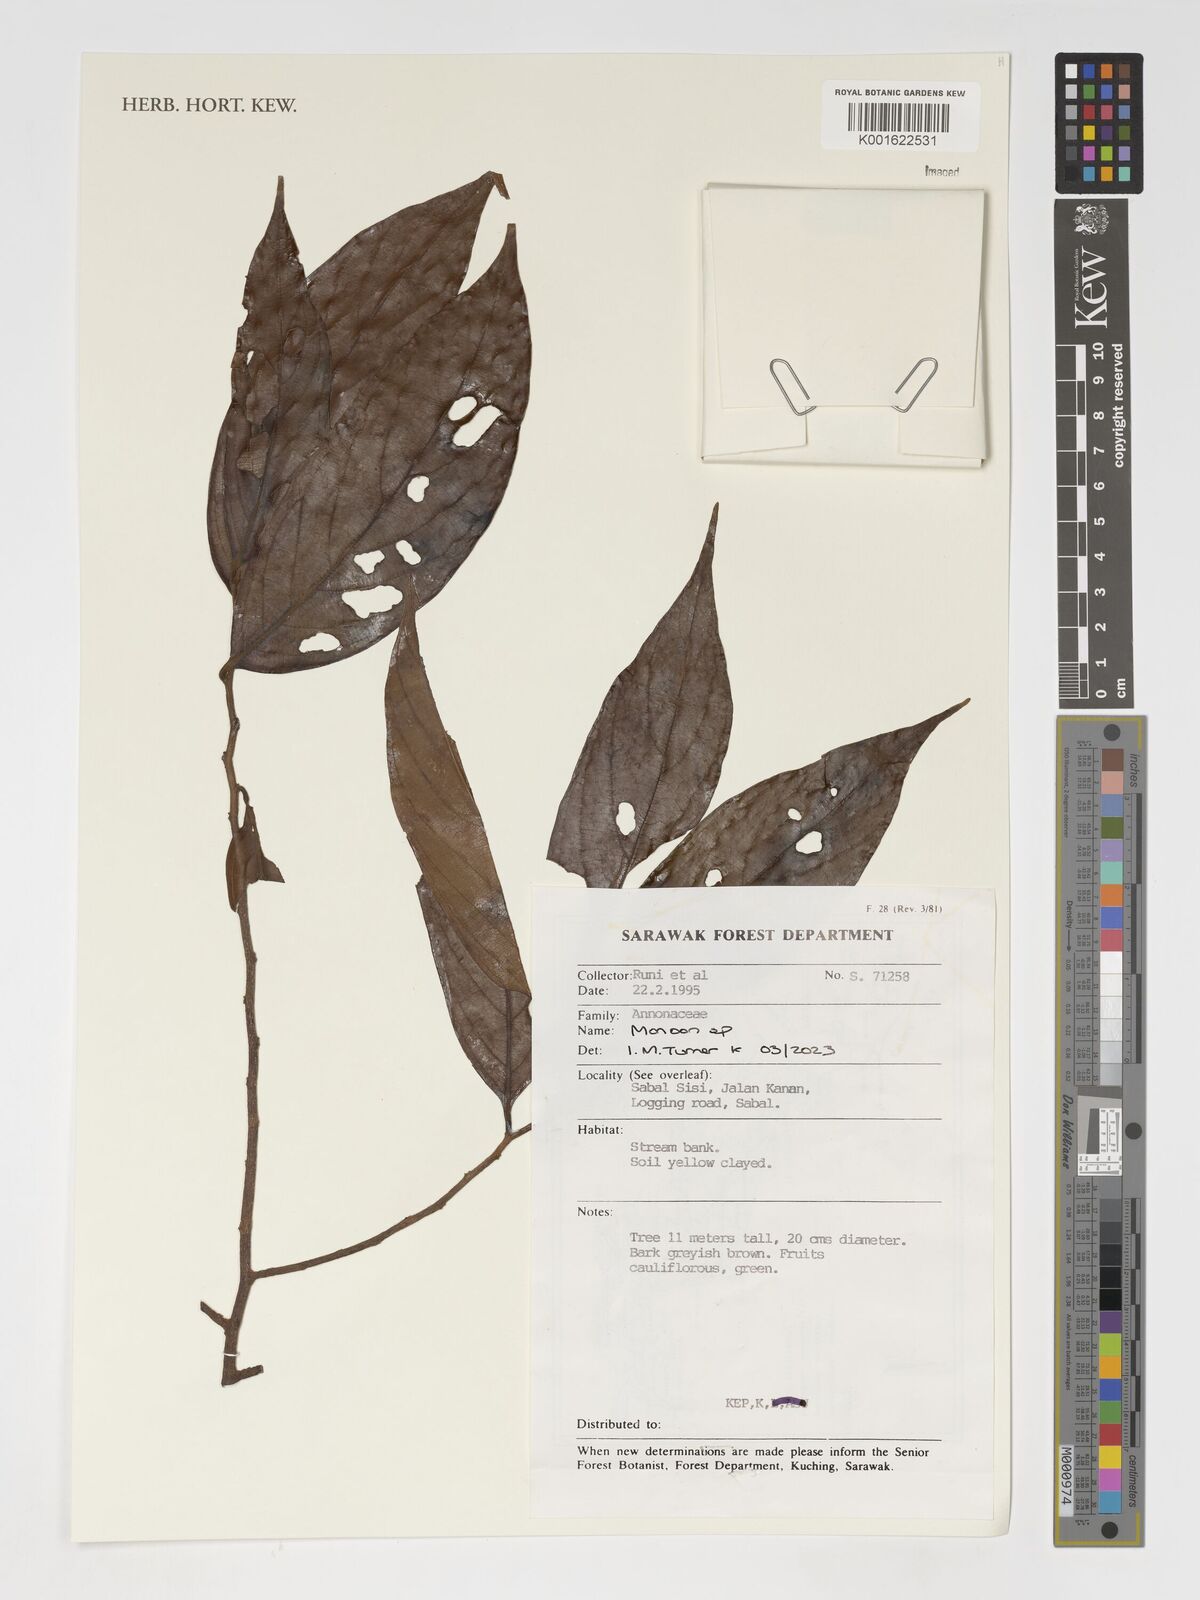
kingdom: Plantae
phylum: Tracheophyta
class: Magnoliopsida
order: Magnoliales
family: Annonaceae
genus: Monoon
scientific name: Monoon
